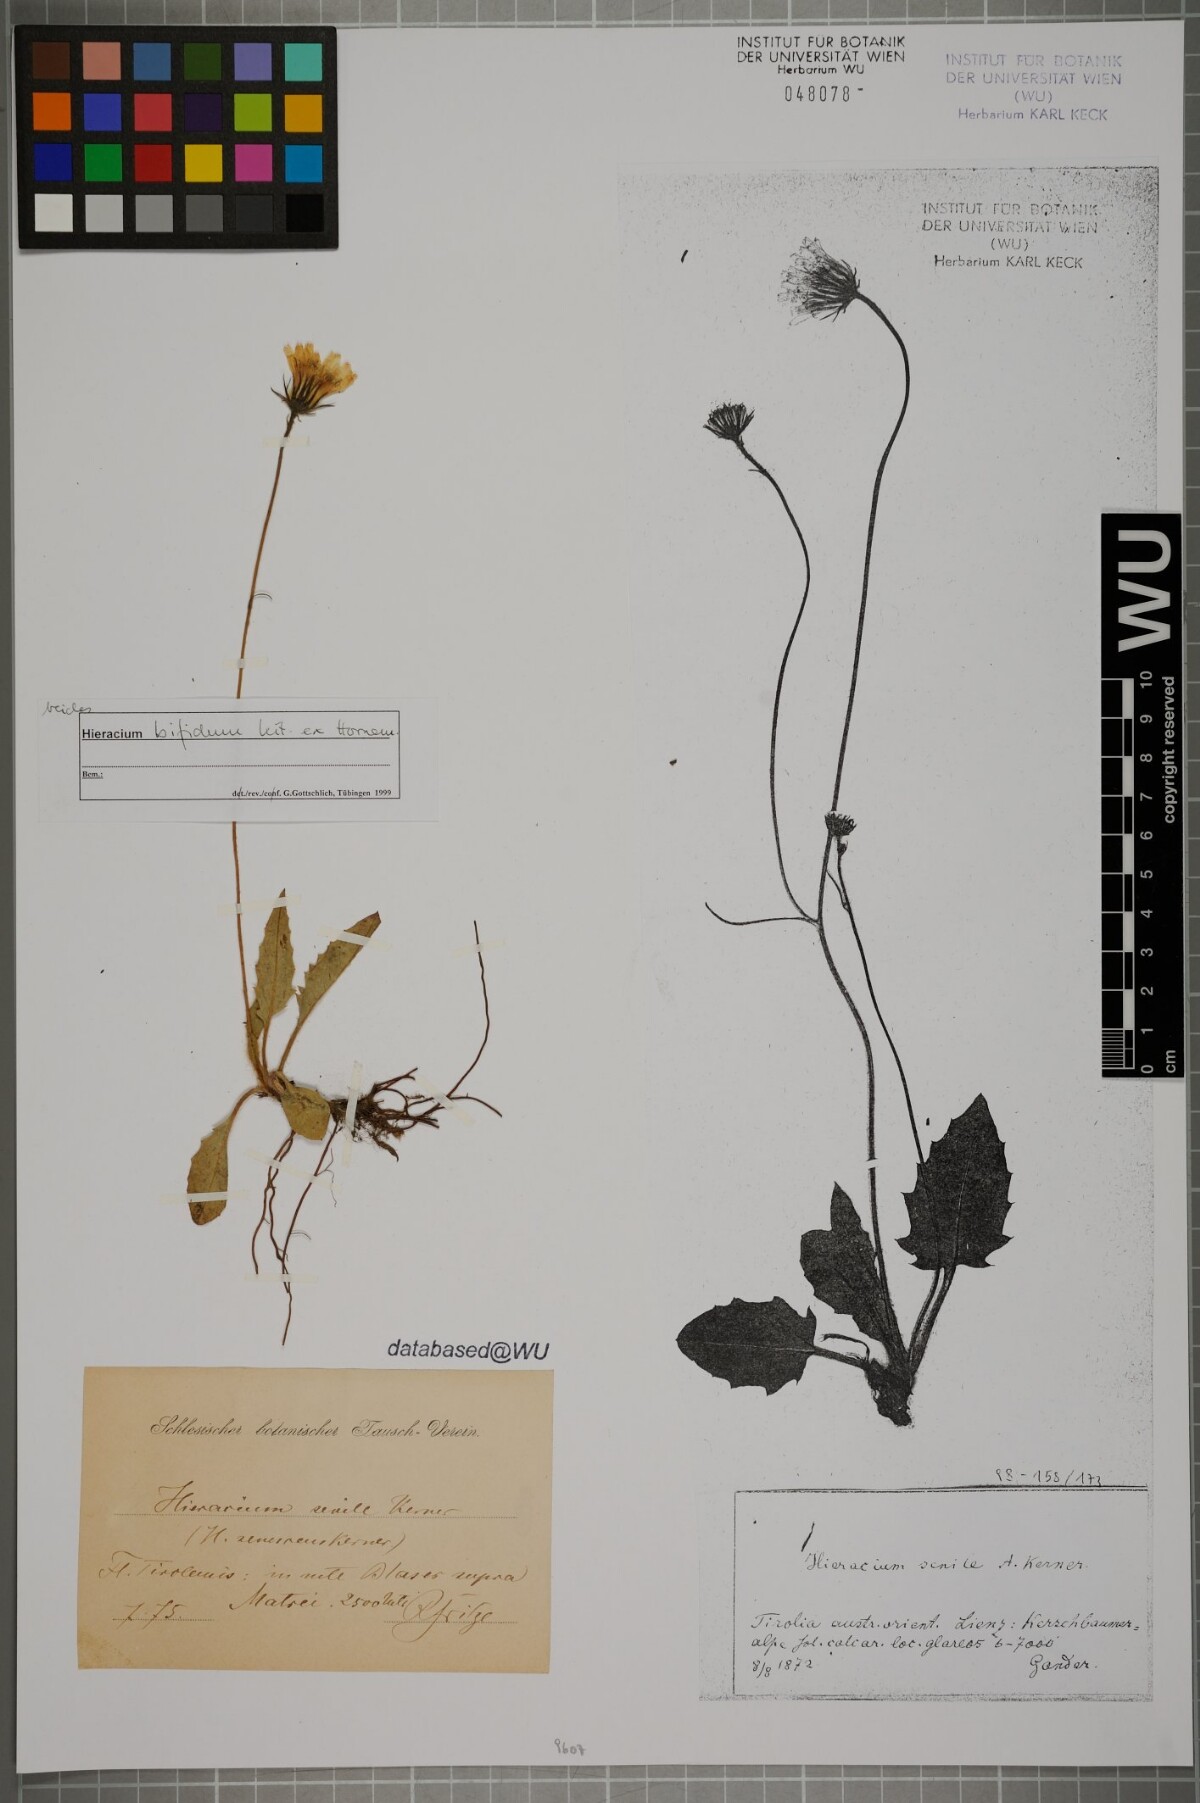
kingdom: Plantae
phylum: Tracheophyta
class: Magnoliopsida
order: Asterales
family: Asteraceae
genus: Hieracium
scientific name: Hieracium bifidum
